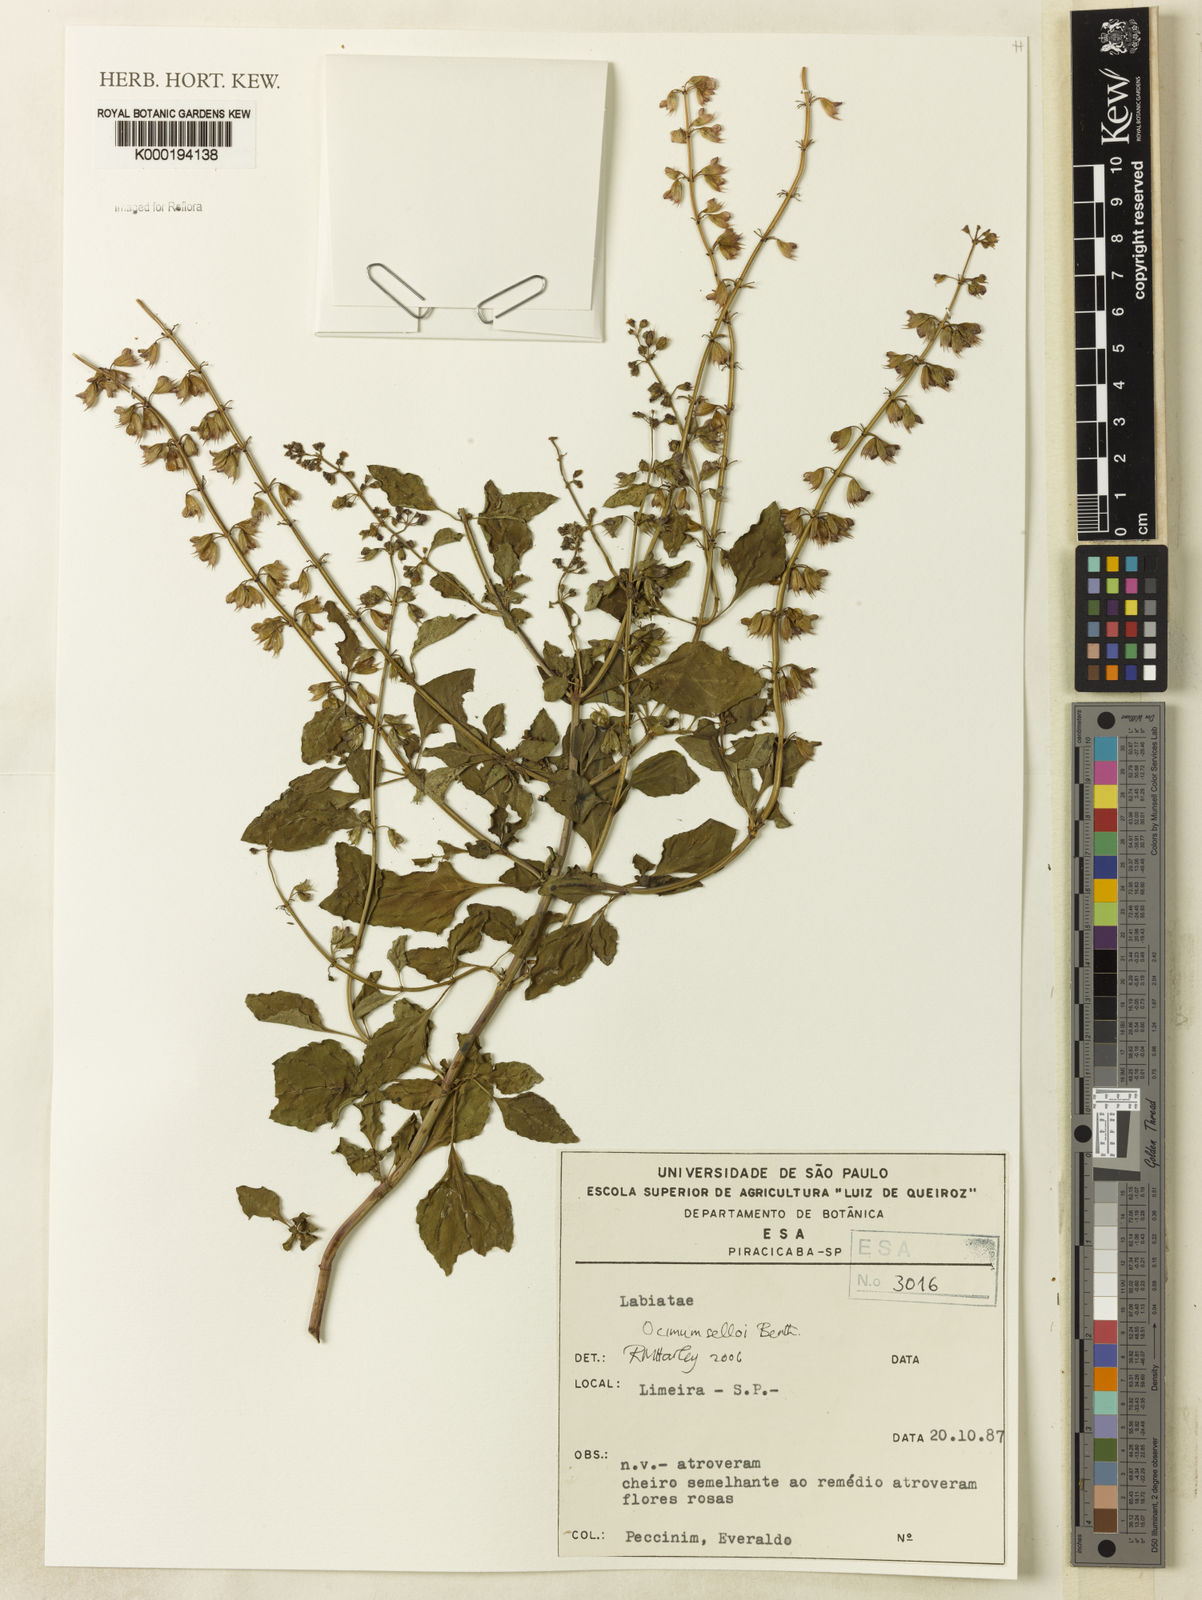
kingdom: Plantae
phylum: Tracheophyta
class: Magnoliopsida
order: Lamiales
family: Lamiaceae
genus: Ocimum
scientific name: Ocimum carnosum
